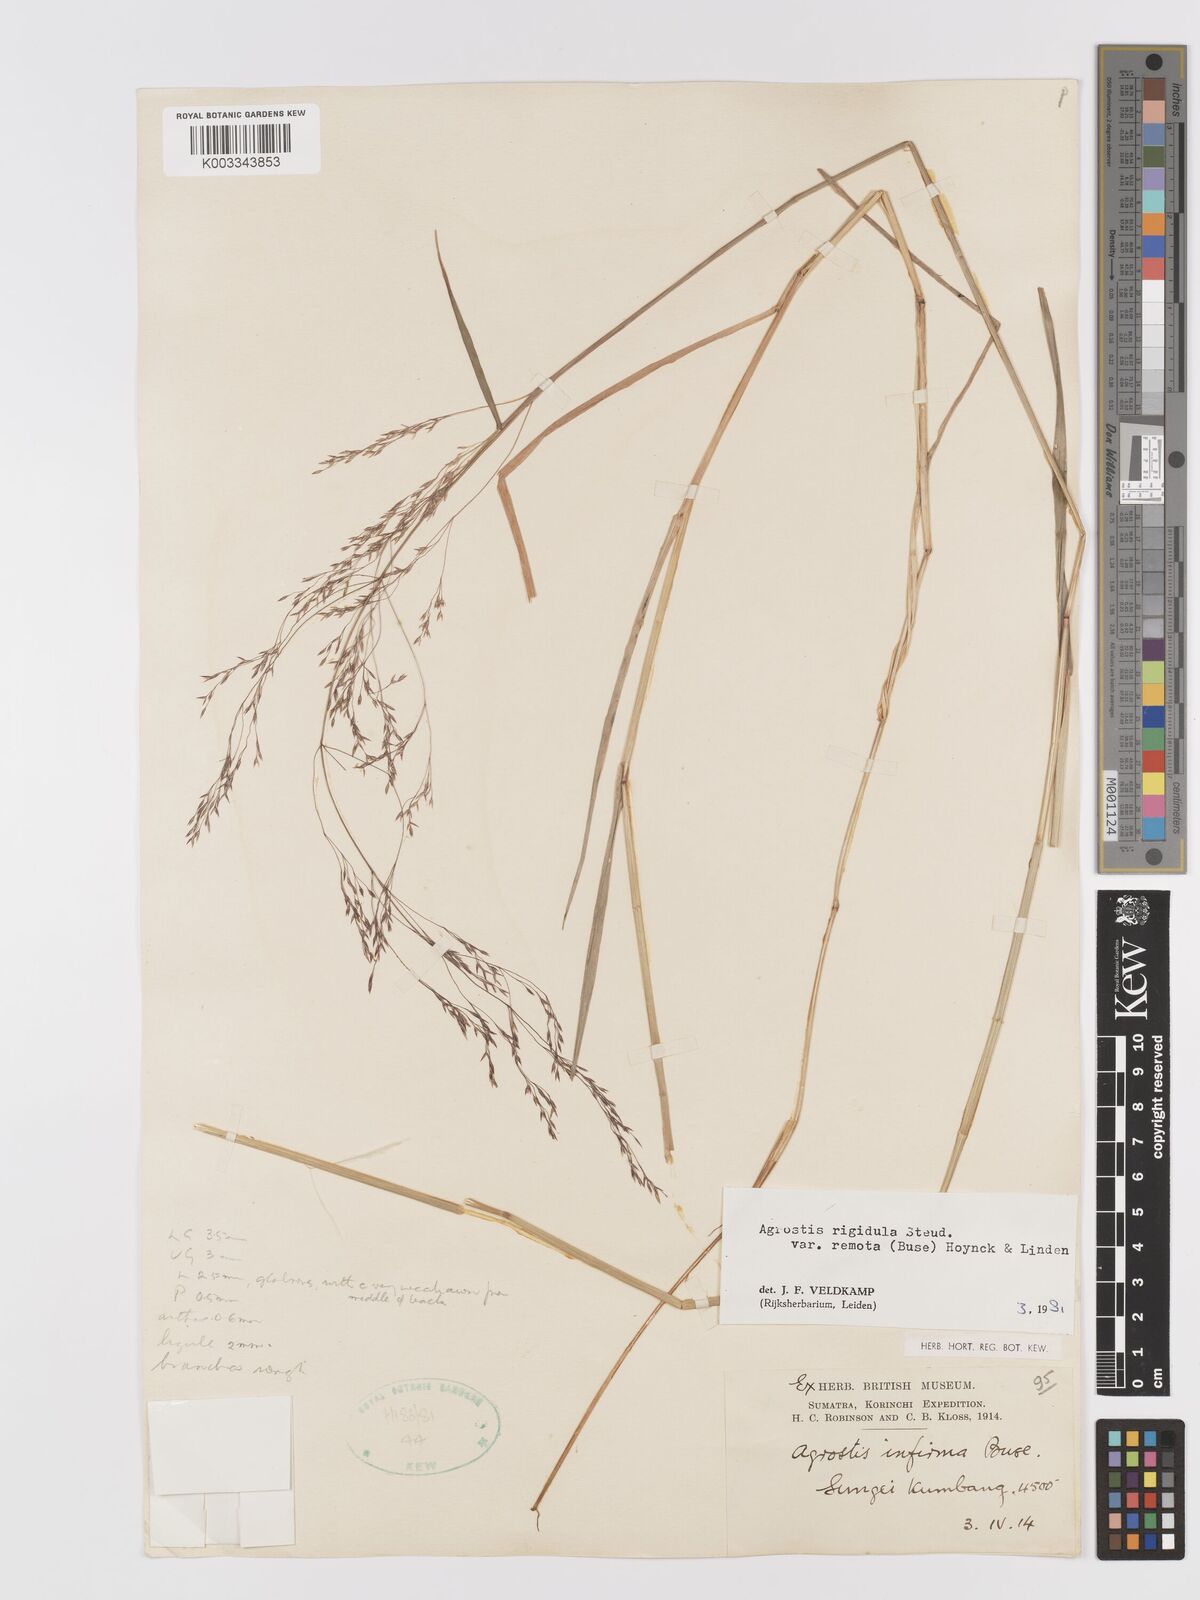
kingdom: Plantae
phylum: Tracheophyta
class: Liliopsida
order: Poales
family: Poaceae
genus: Agrostis
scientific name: Agrostis infirma
